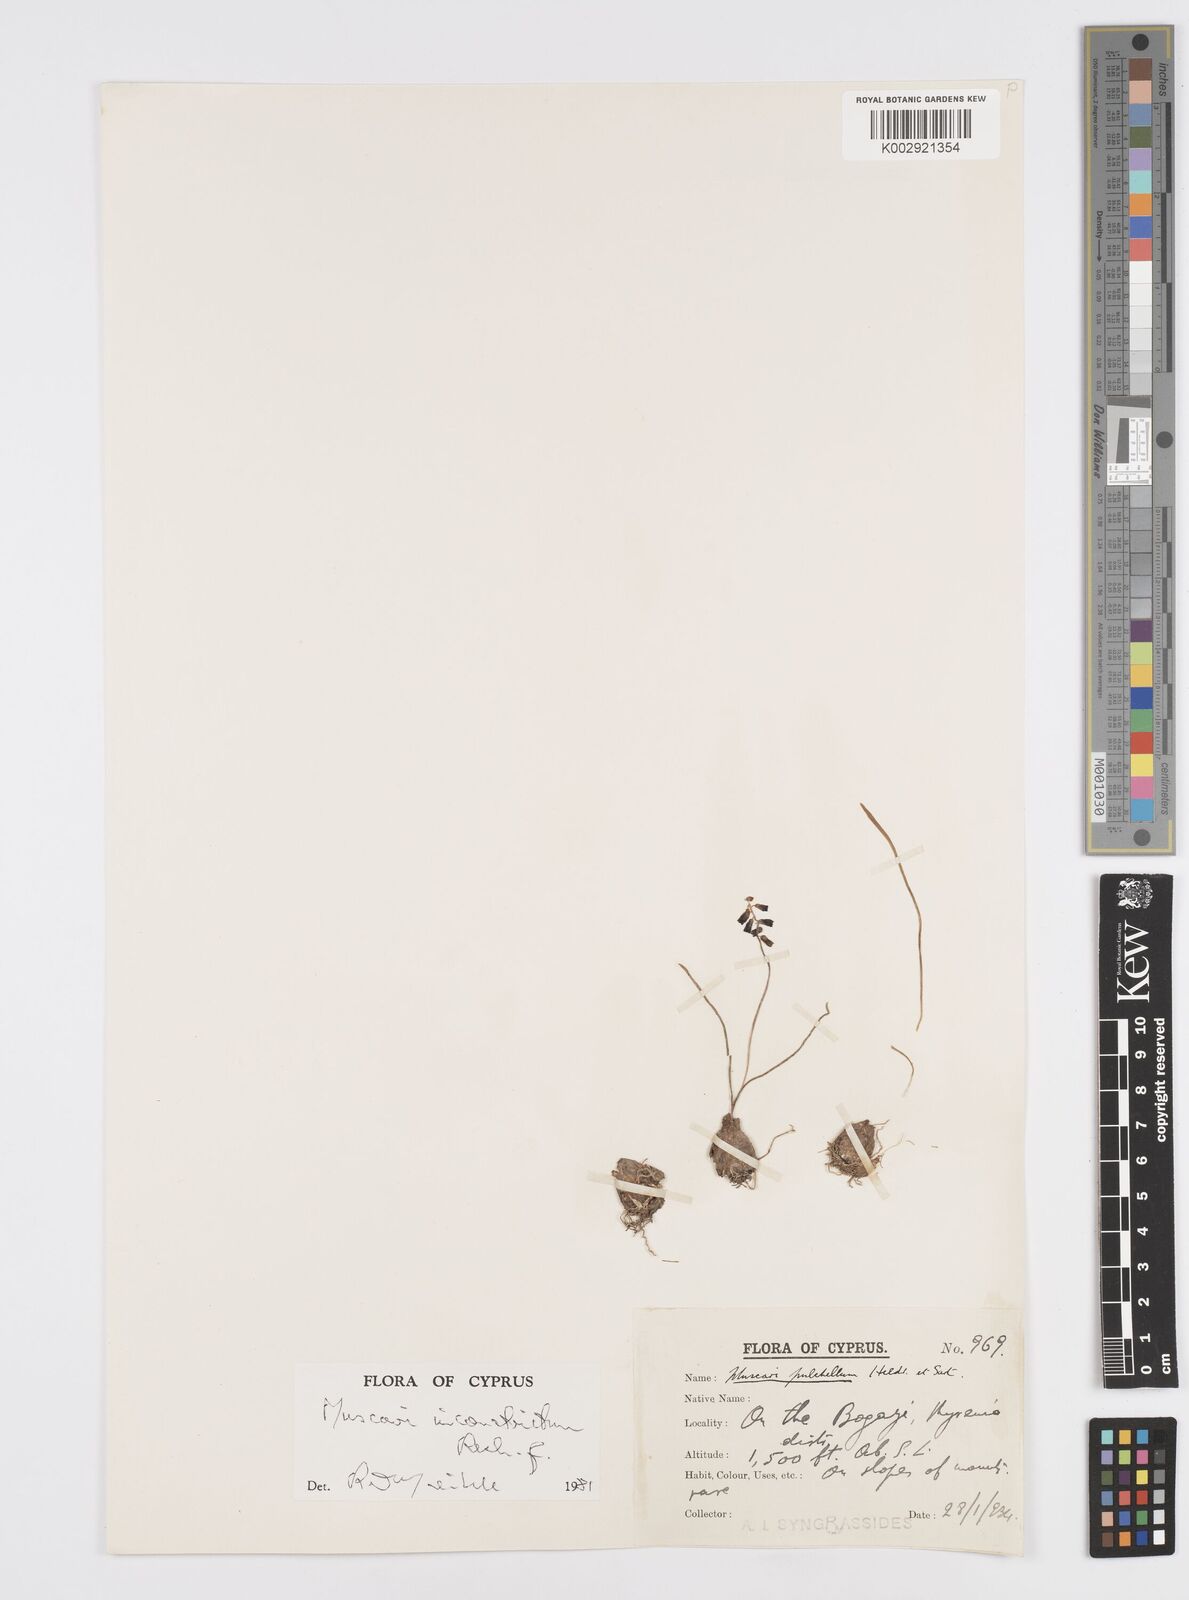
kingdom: Plantae
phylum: Tracheophyta
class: Liliopsida
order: Asparagales
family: Asparagaceae
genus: Muscari
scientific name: Muscari inconstrictum
